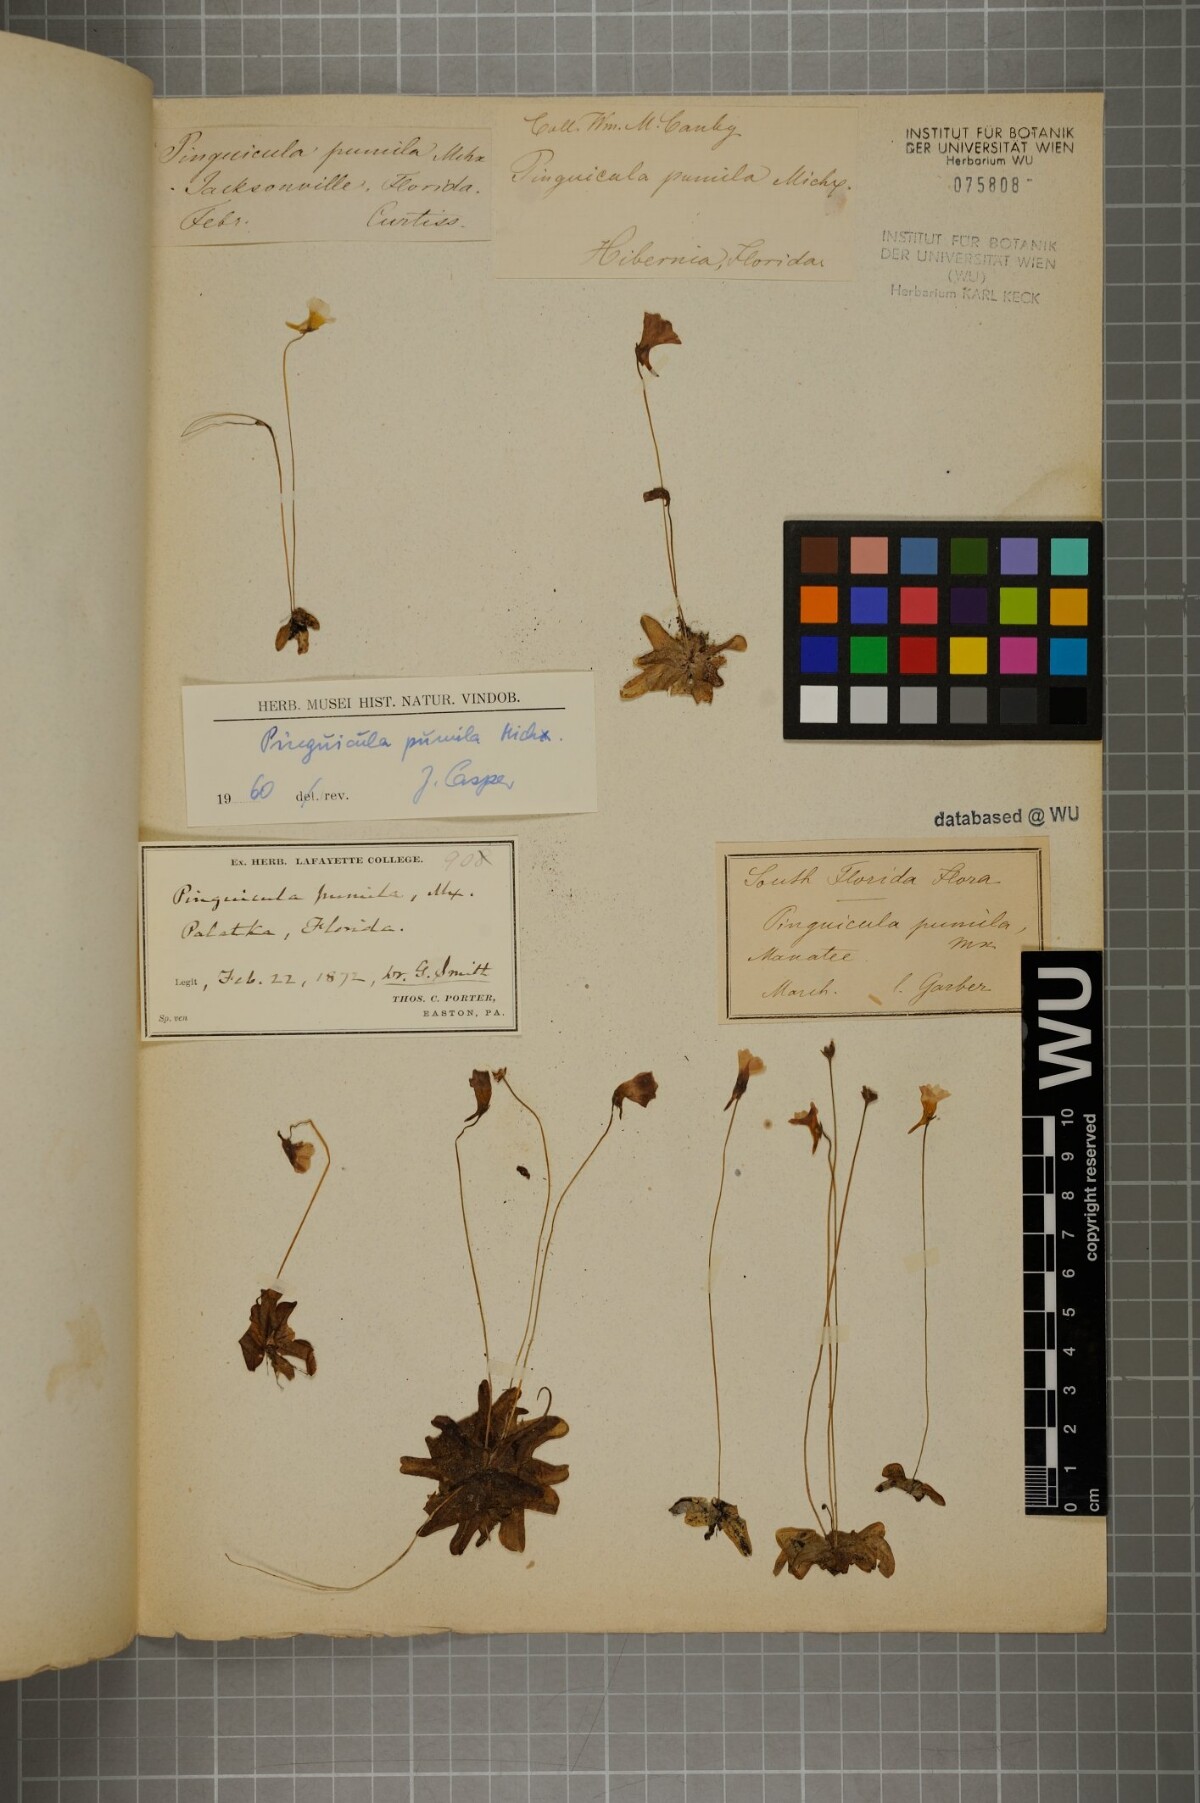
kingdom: Plantae
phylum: Tracheophyta
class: Magnoliopsida
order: Lamiales
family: Lentibulariaceae
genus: Pinguicula
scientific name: Pinguicula pumila
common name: Small butterwort
